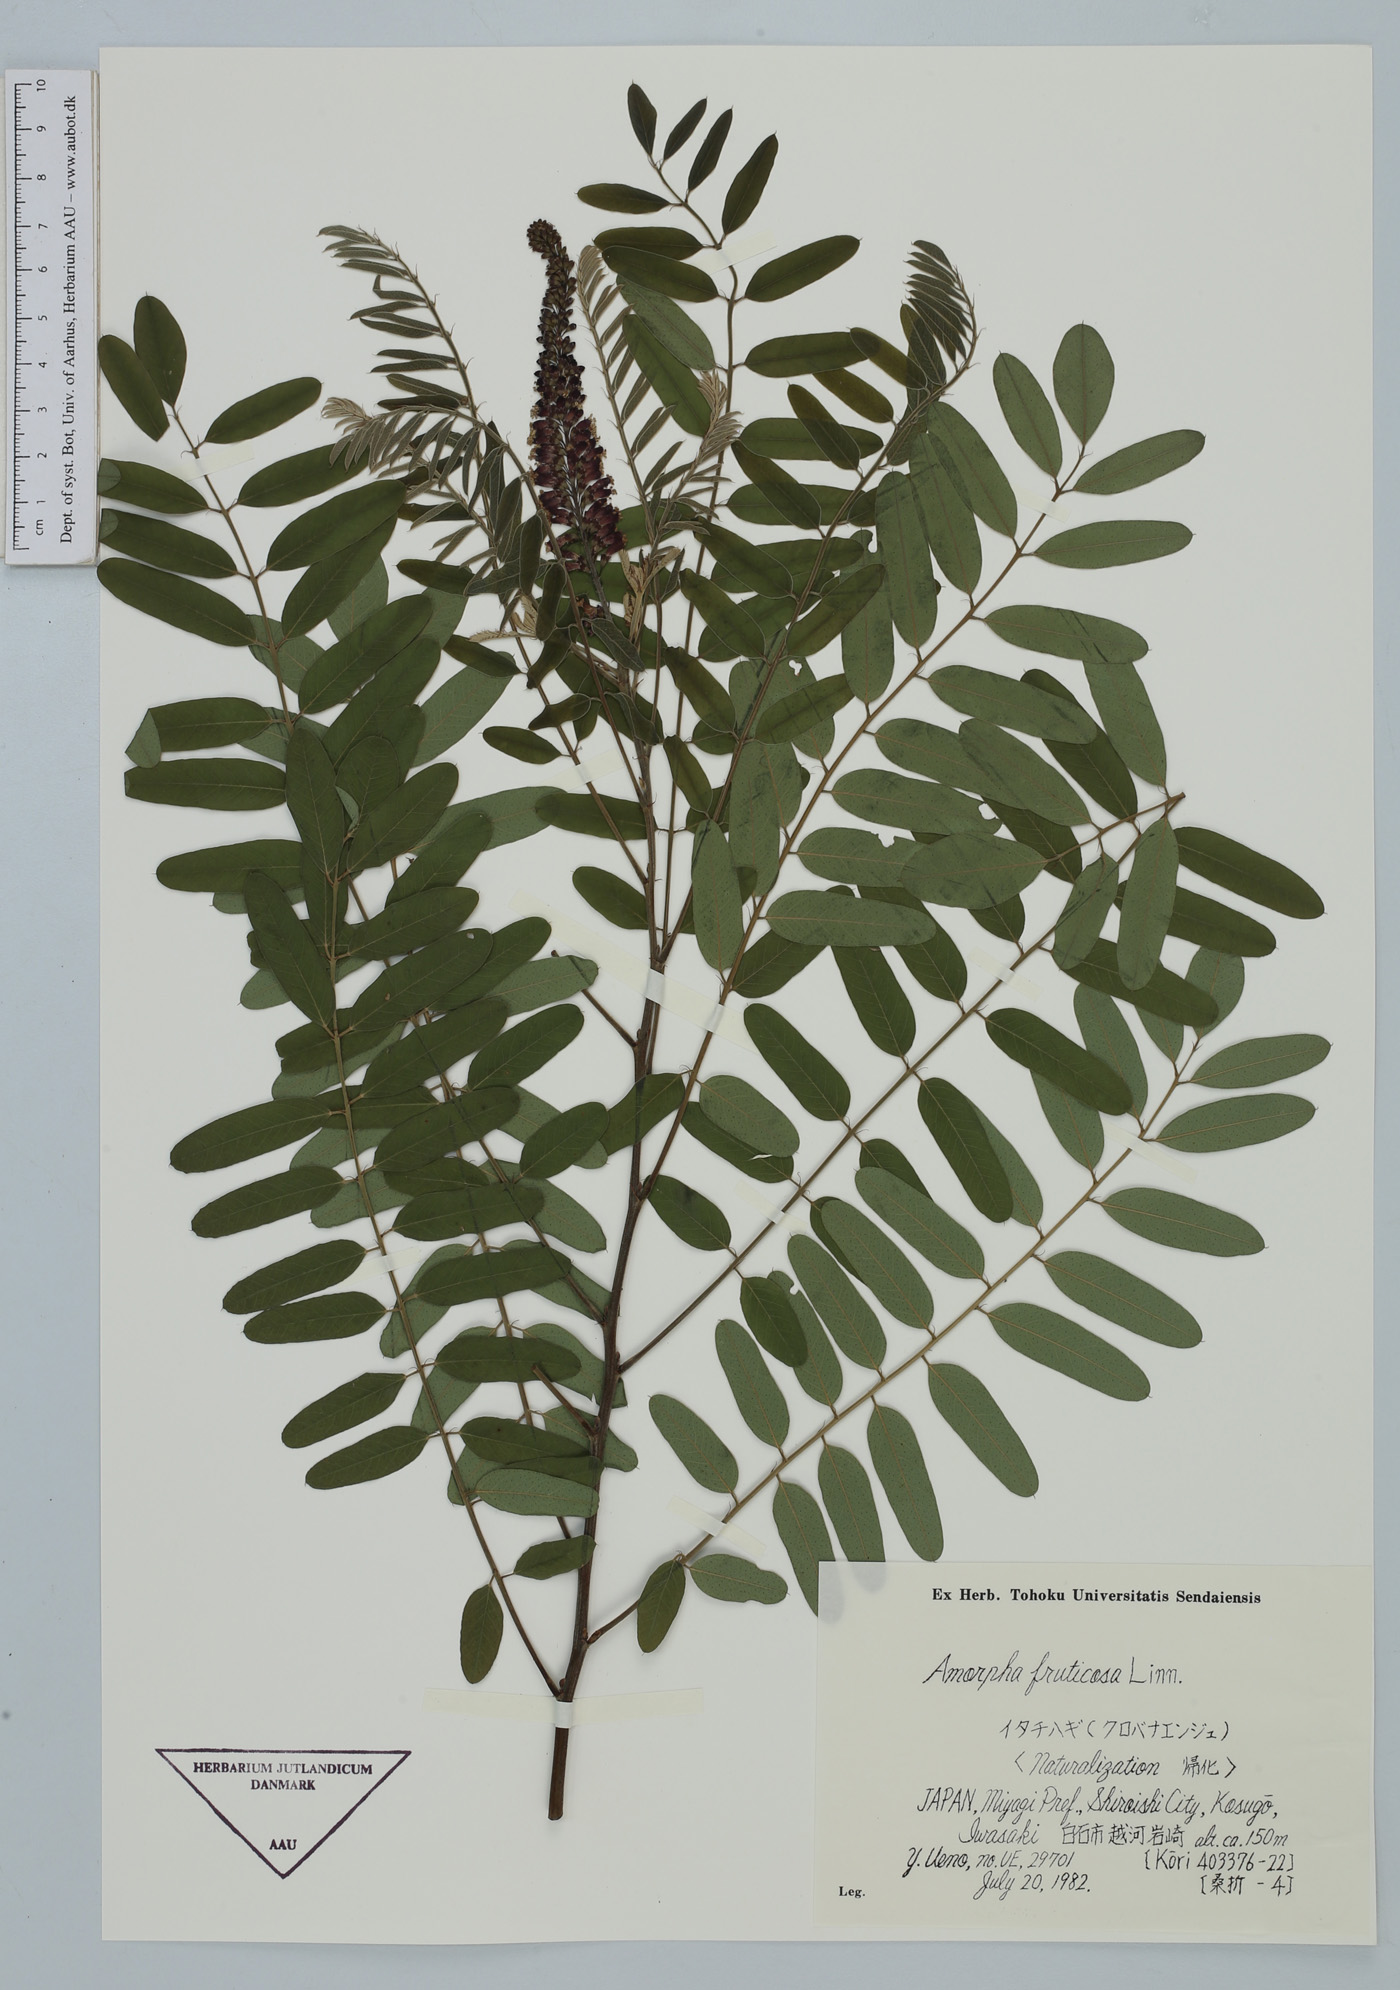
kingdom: Plantae
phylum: Tracheophyta
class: Magnoliopsida
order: Fabales
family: Fabaceae
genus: Amorpha
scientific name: Amorpha fruticosa
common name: False indigo
